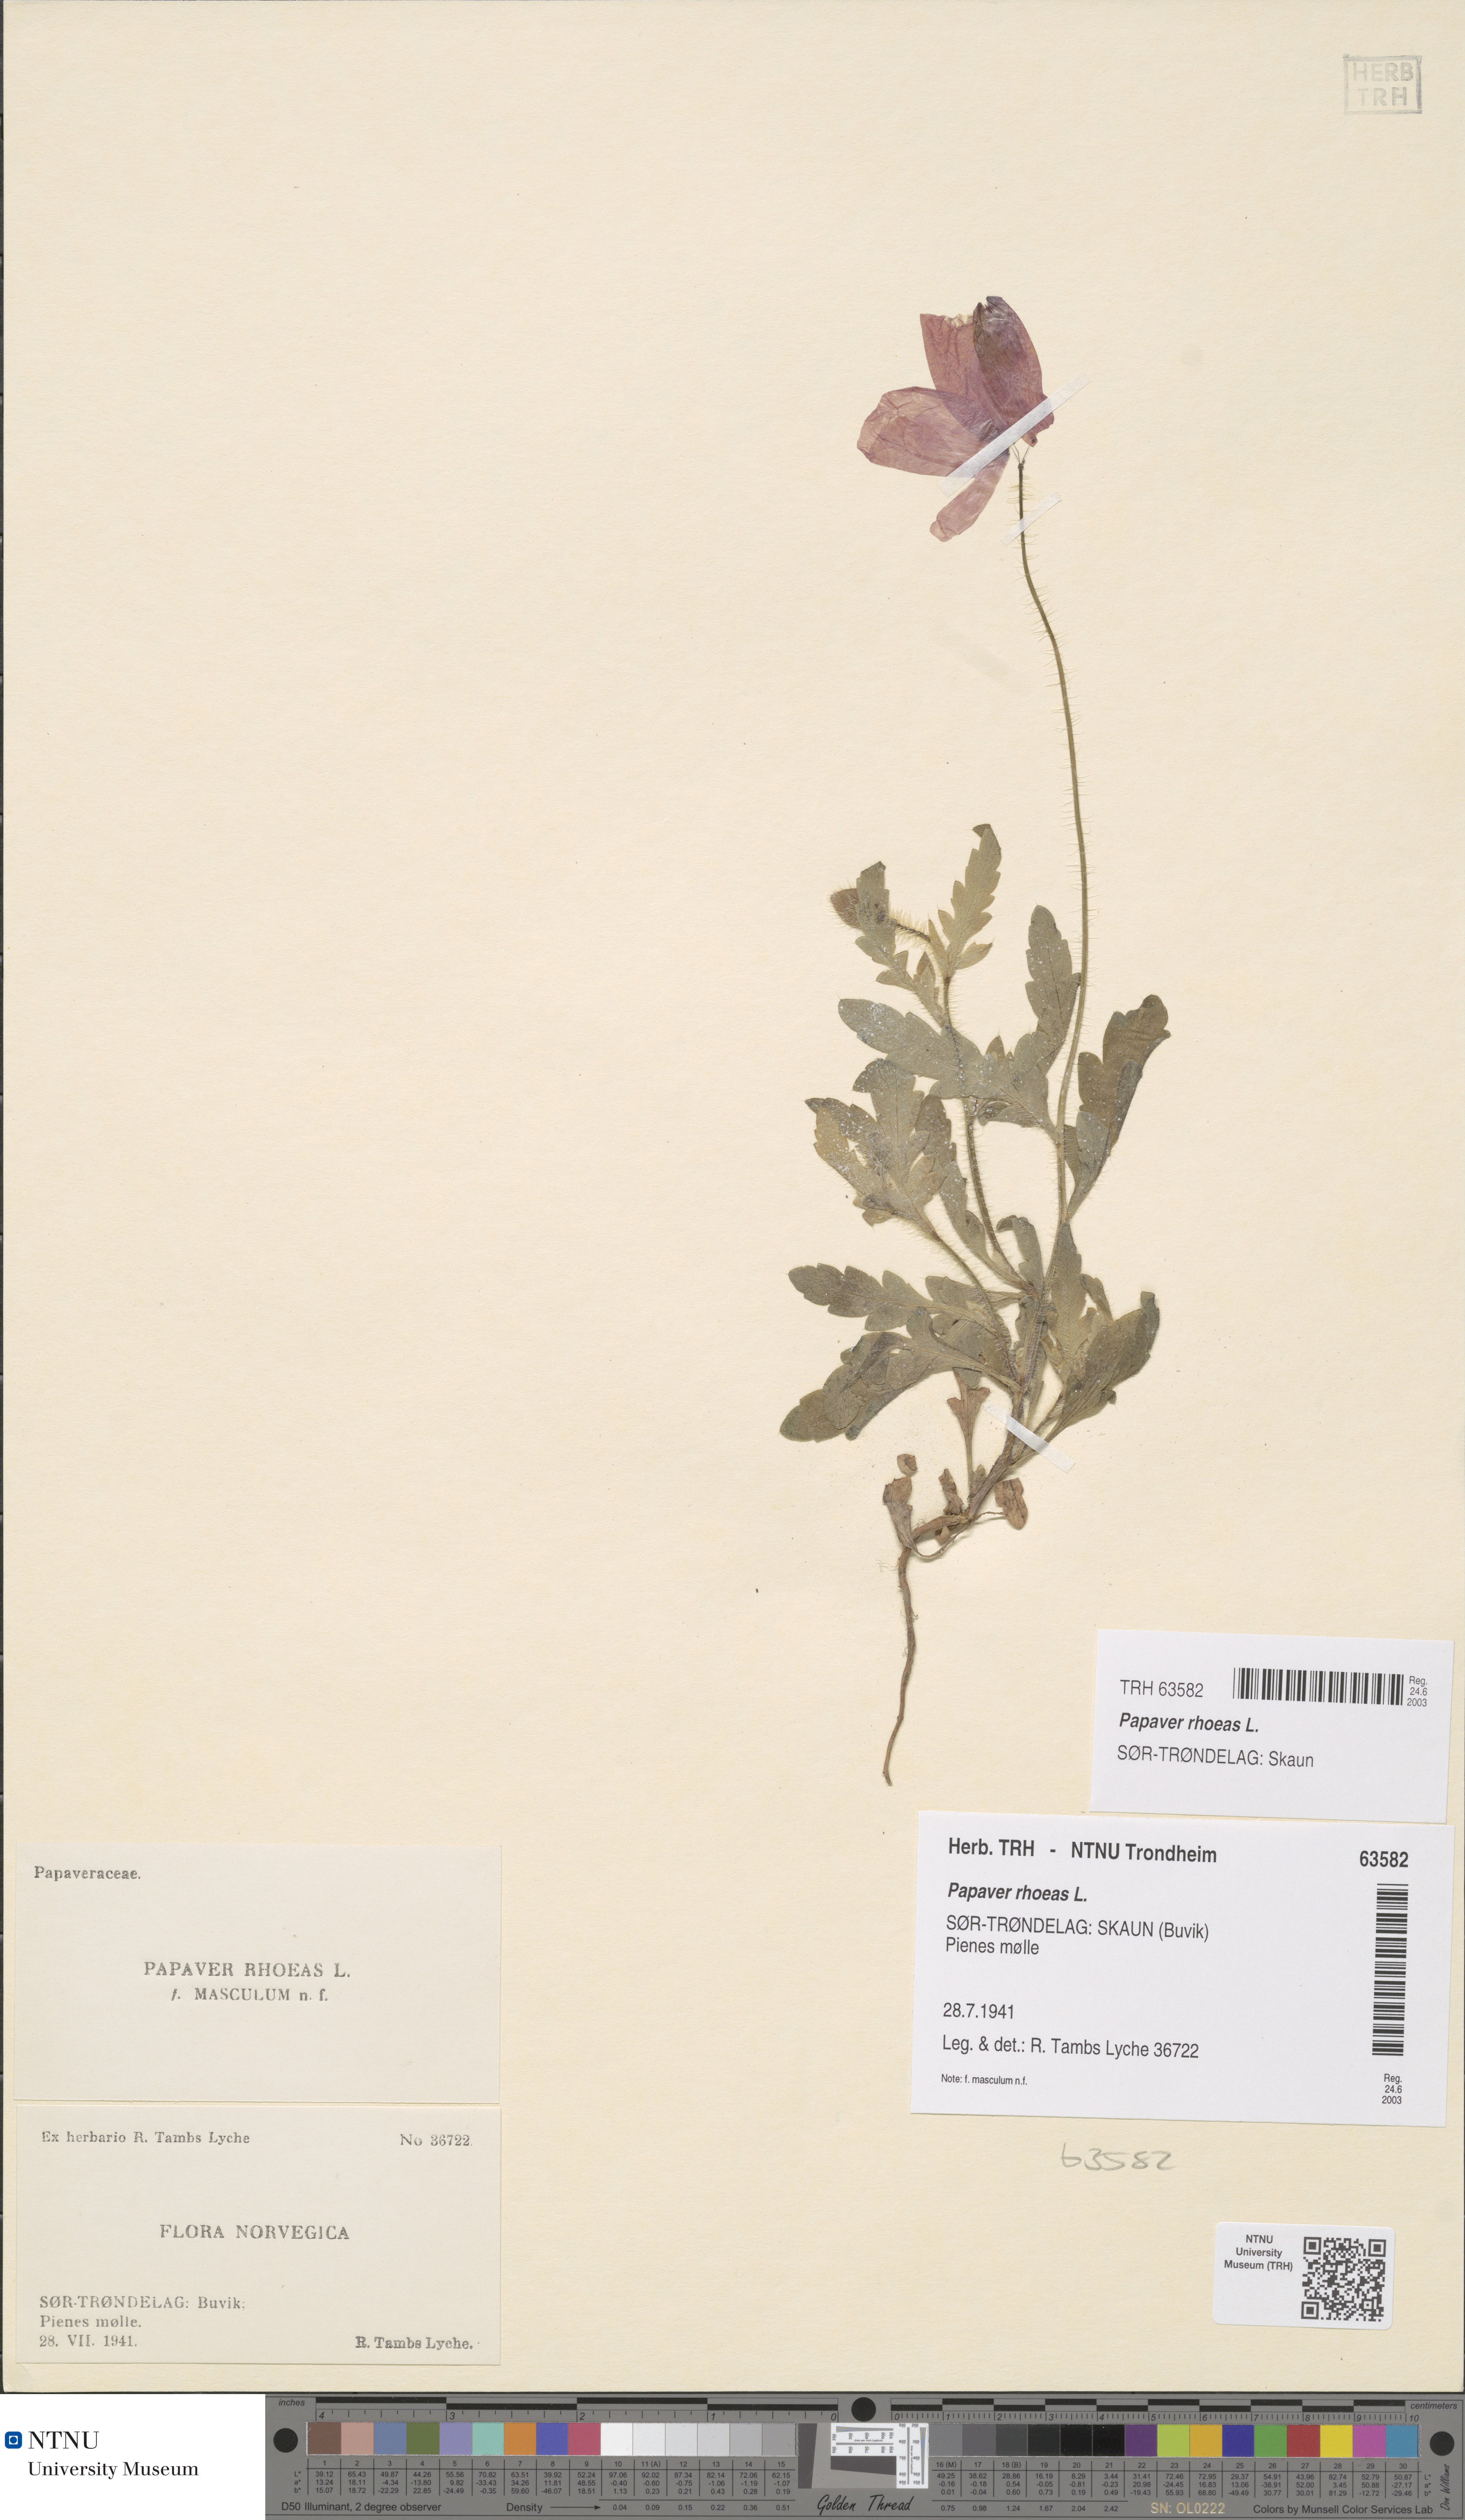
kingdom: Plantae
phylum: Tracheophyta
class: Magnoliopsida
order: Ranunculales
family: Papaveraceae
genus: Papaver
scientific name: Papaver rhoeas
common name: Corn poppy
